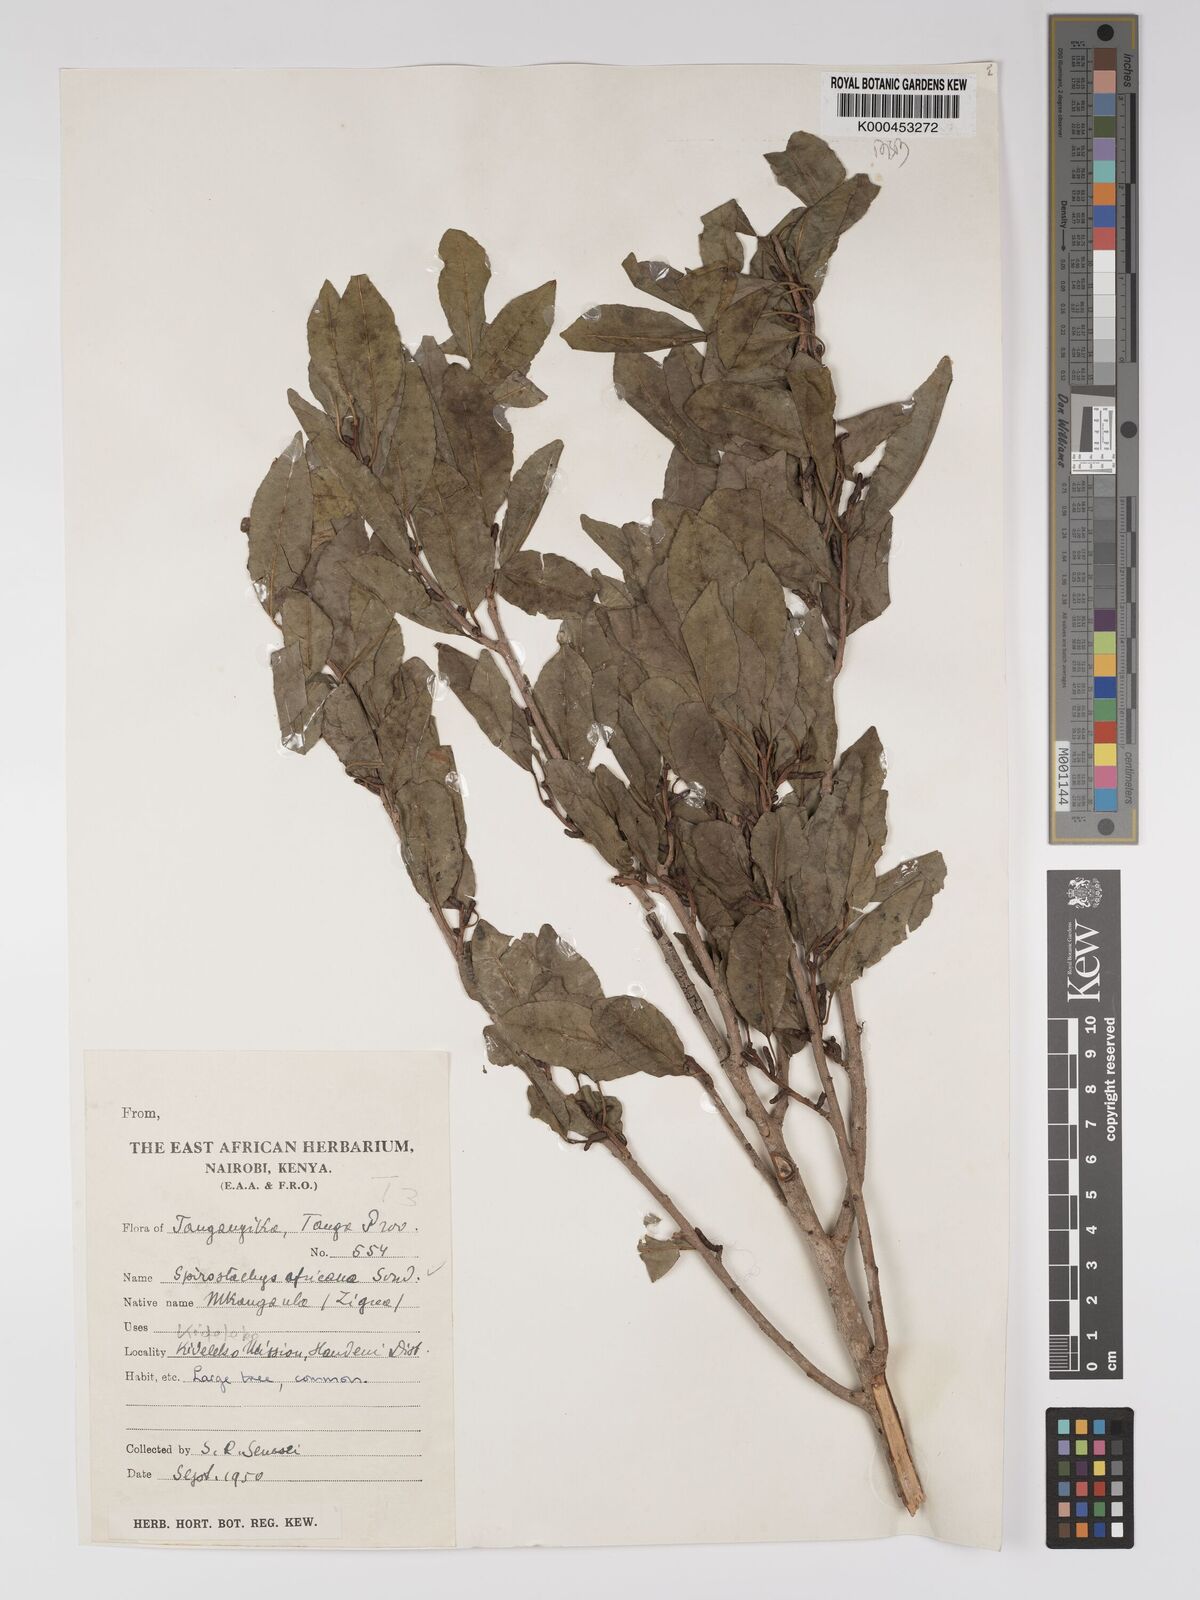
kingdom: Plantae
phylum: Tracheophyta
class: Magnoliopsida
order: Malpighiales
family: Euphorbiaceae
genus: Spirostachys
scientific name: Spirostachys africana
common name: Tamboti
